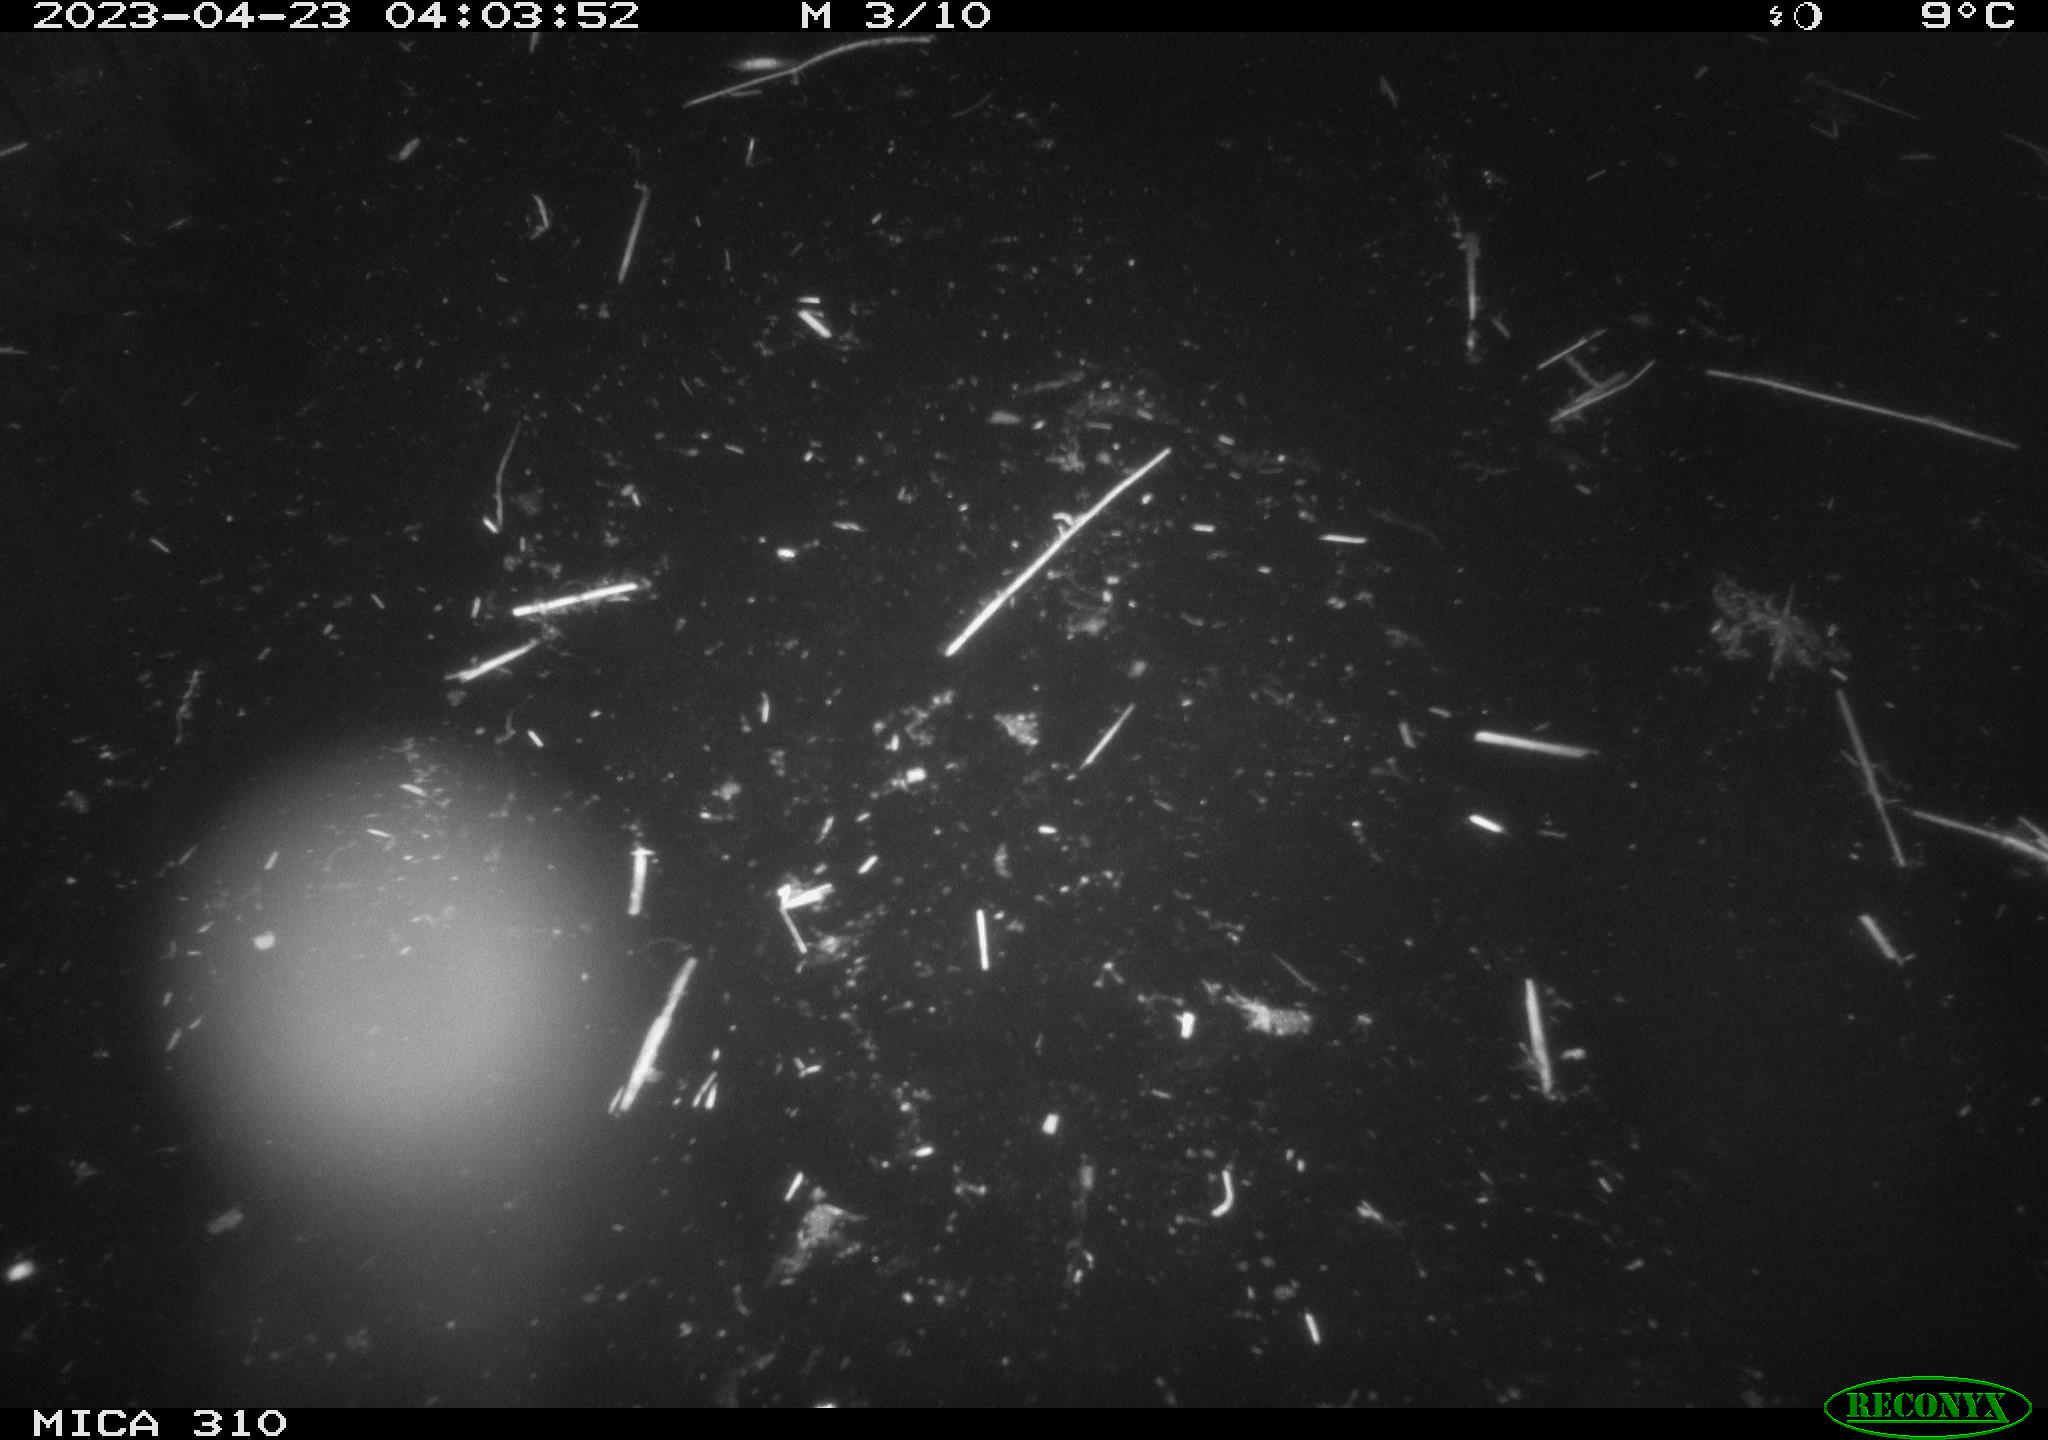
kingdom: Animalia
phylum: Chordata
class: Aves
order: Anseriformes
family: Anatidae
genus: Anas
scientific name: Anas
